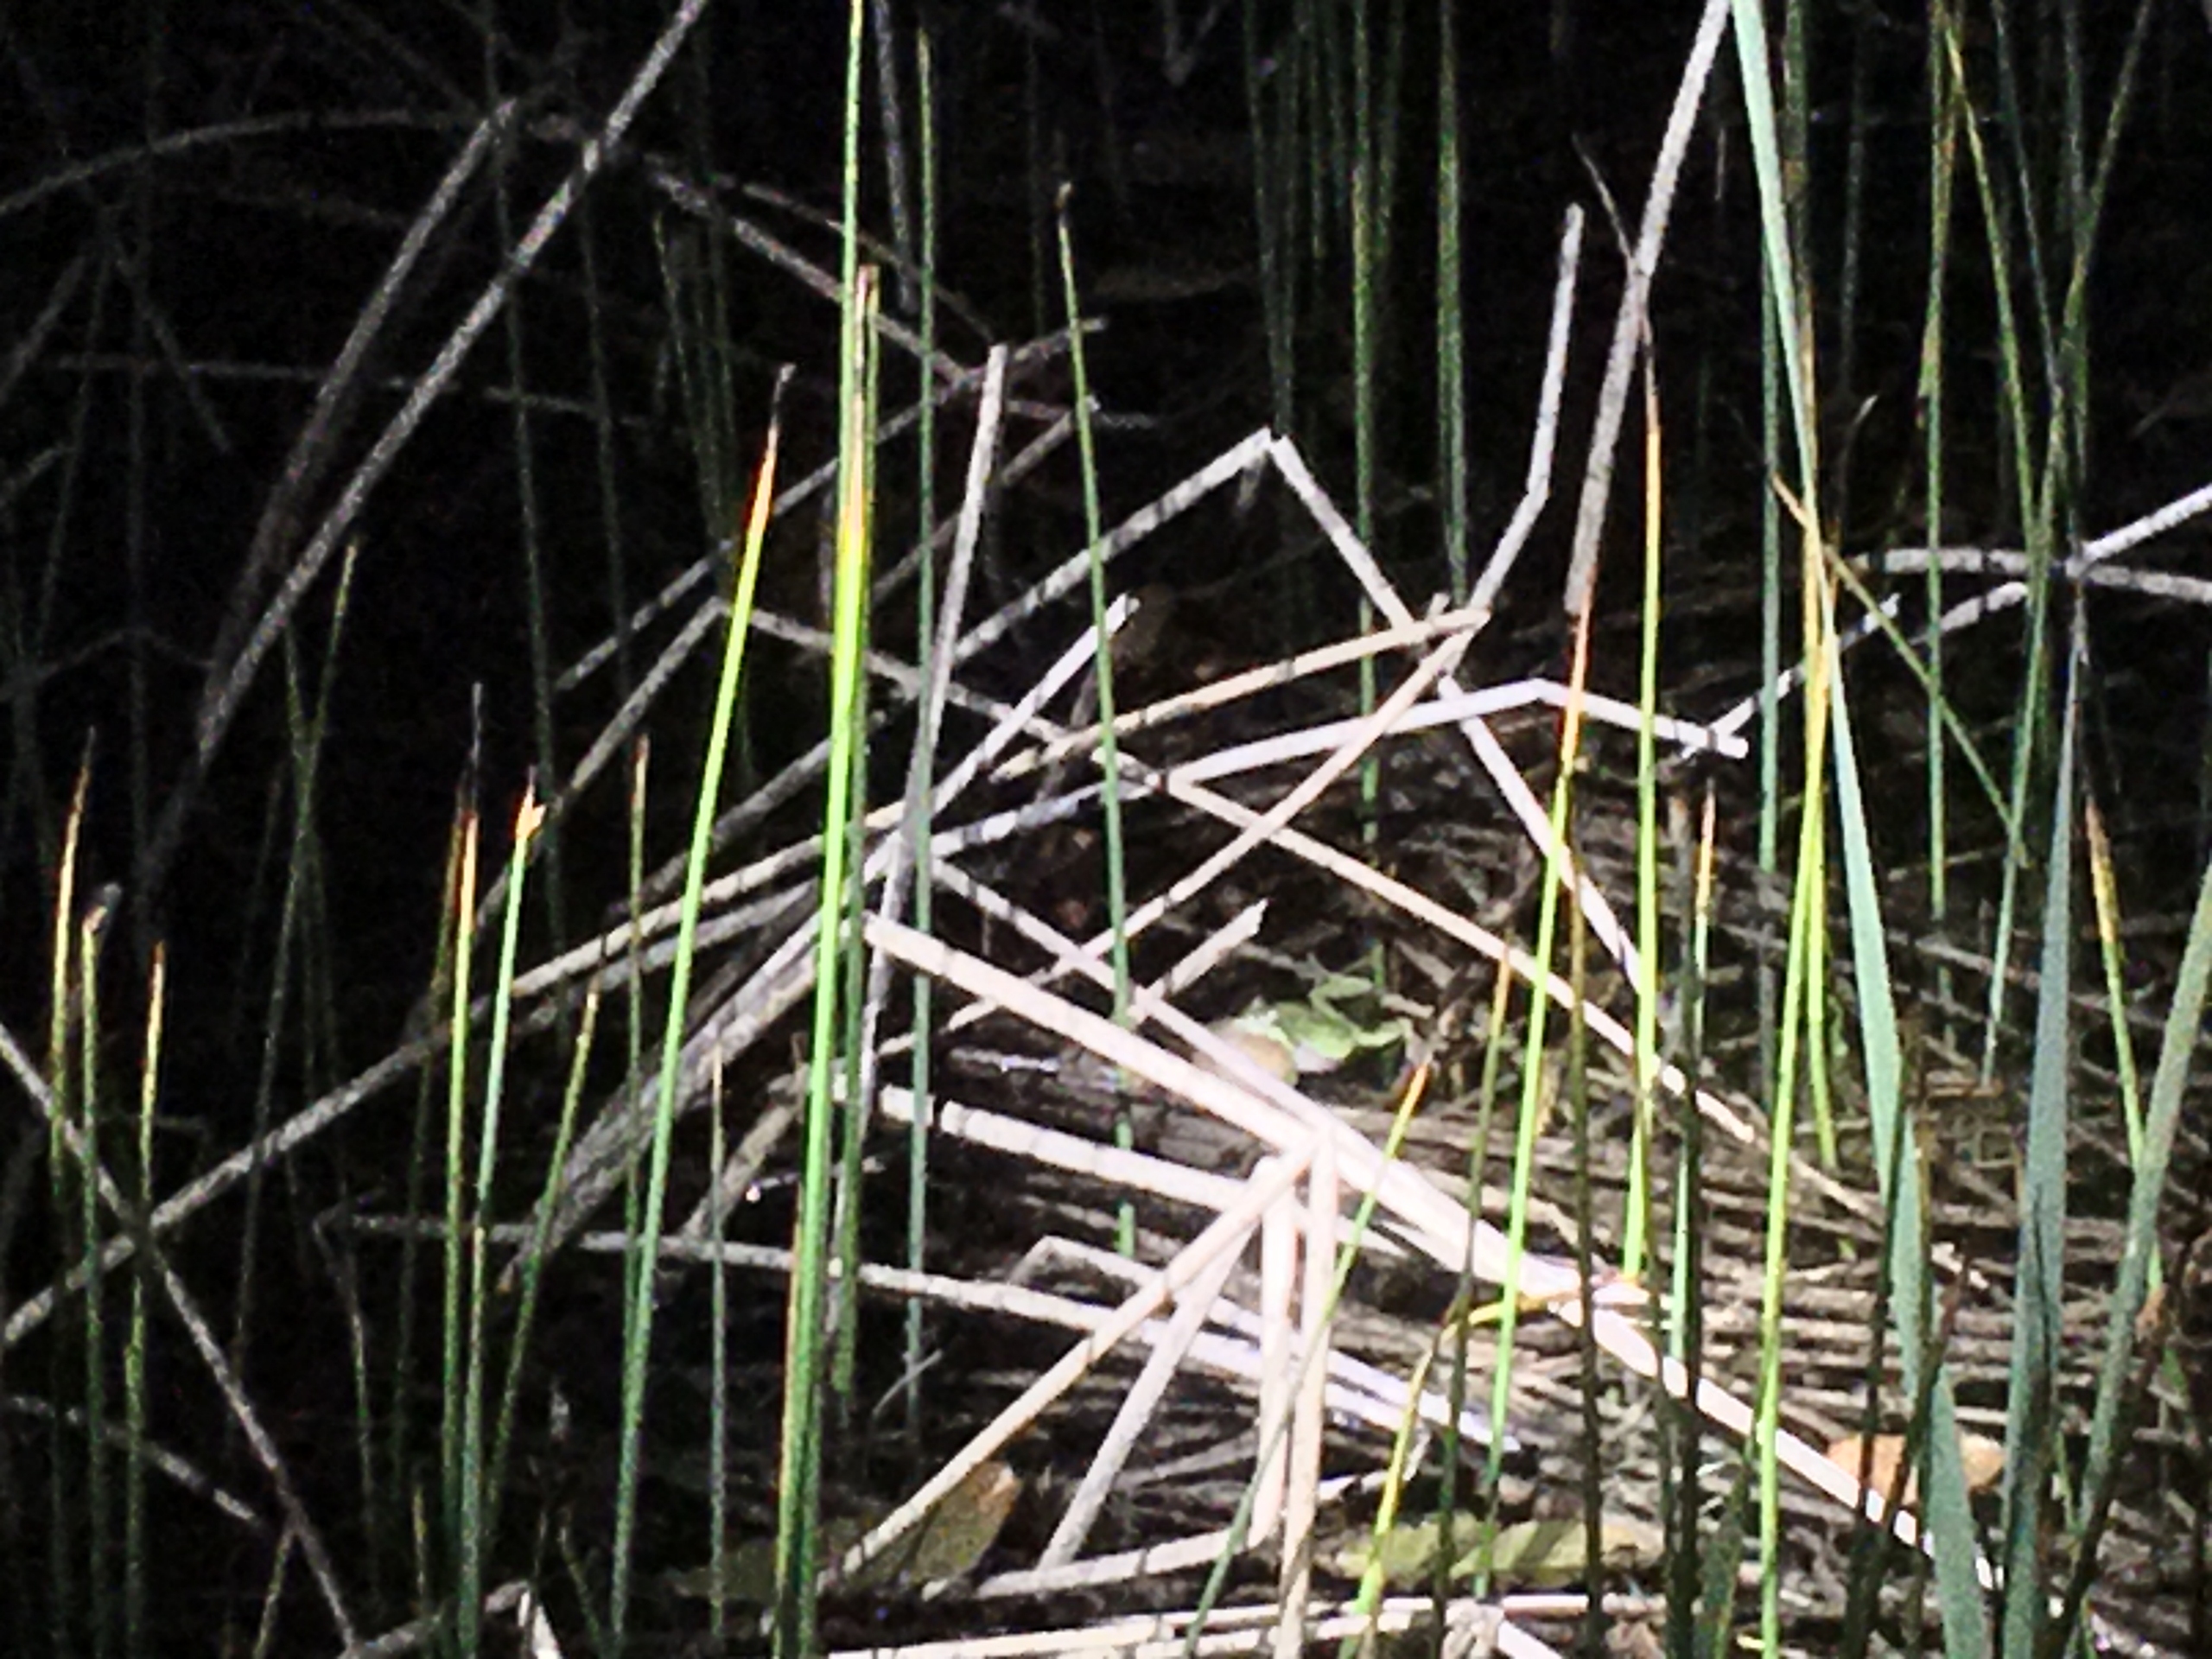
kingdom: Animalia
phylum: Chordata
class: Amphibia
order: Anura
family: Hylidae
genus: Hyla
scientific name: Hyla arborea
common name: Løvfrø
